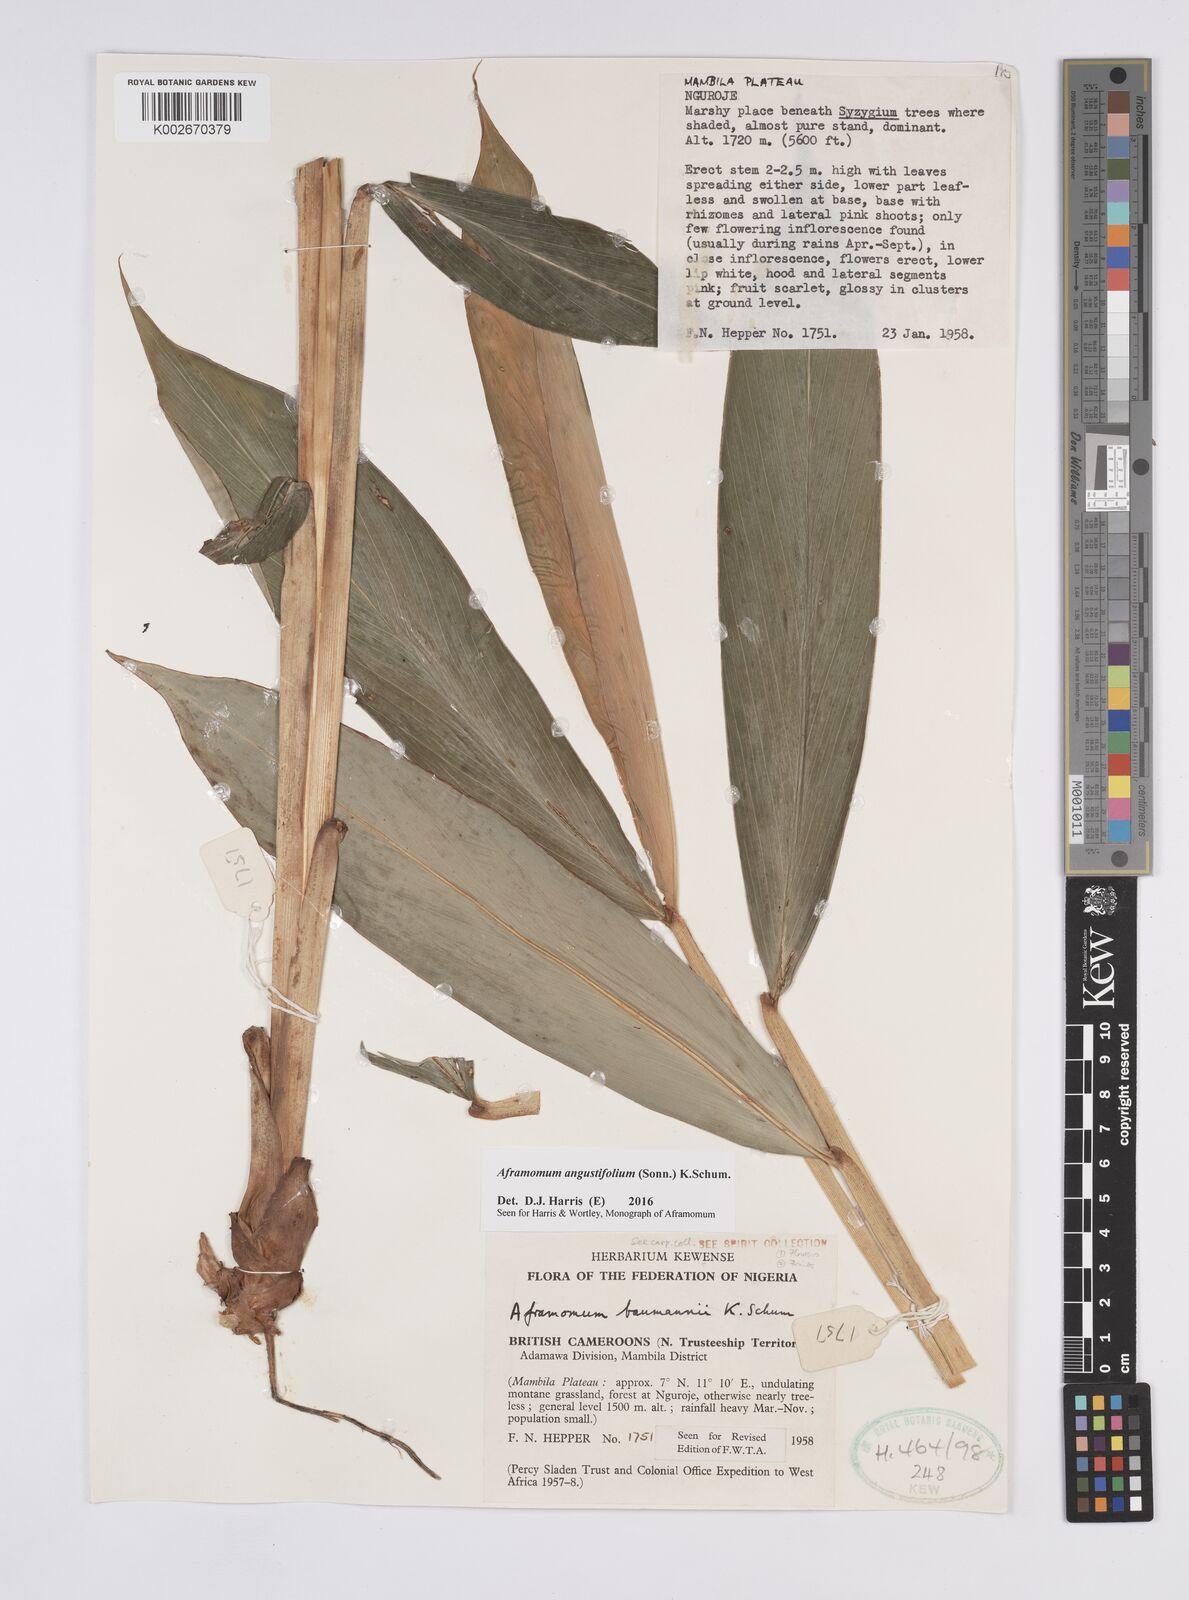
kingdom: Plantae
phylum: Tracheophyta
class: Liliopsida
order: Zingiberales
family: Zingiberaceae
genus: Aframomum
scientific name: Aframomum angustifolium
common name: Guinea grains
